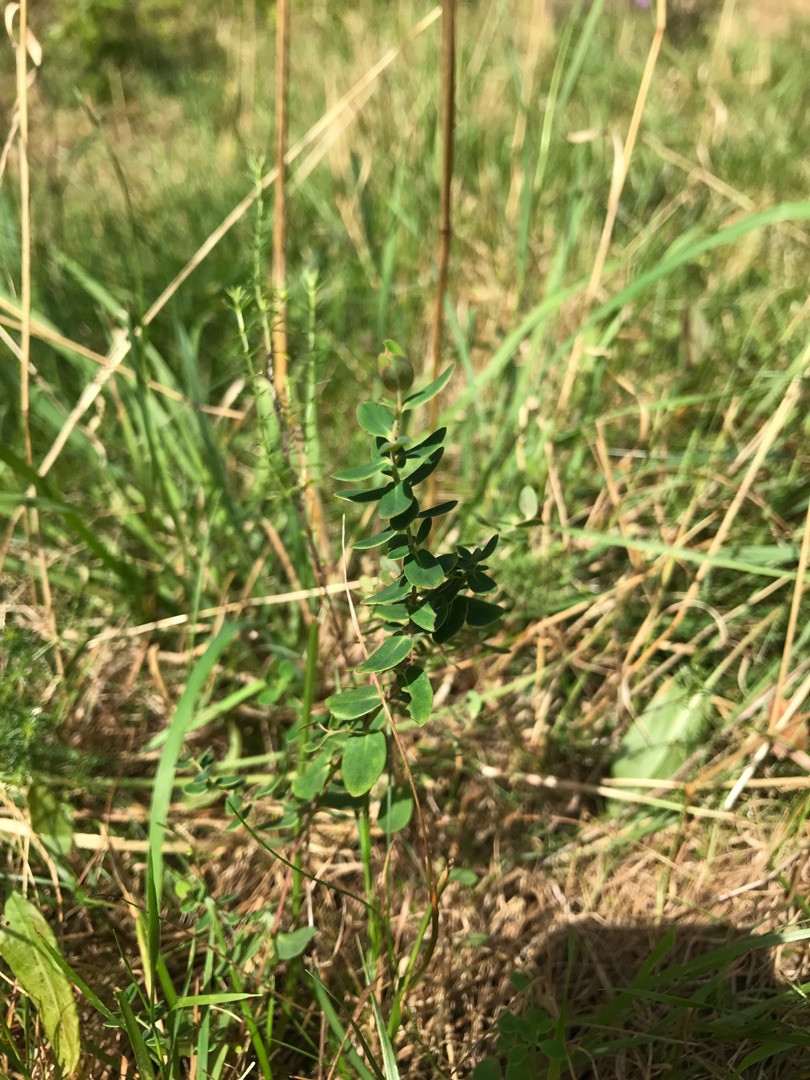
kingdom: Plantae
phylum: Tracheophyta
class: Magnoliopsida
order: Malpighiales
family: Hypericaceae
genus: Hypericum
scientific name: Hypericum pulchrum
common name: Smuk perikon
